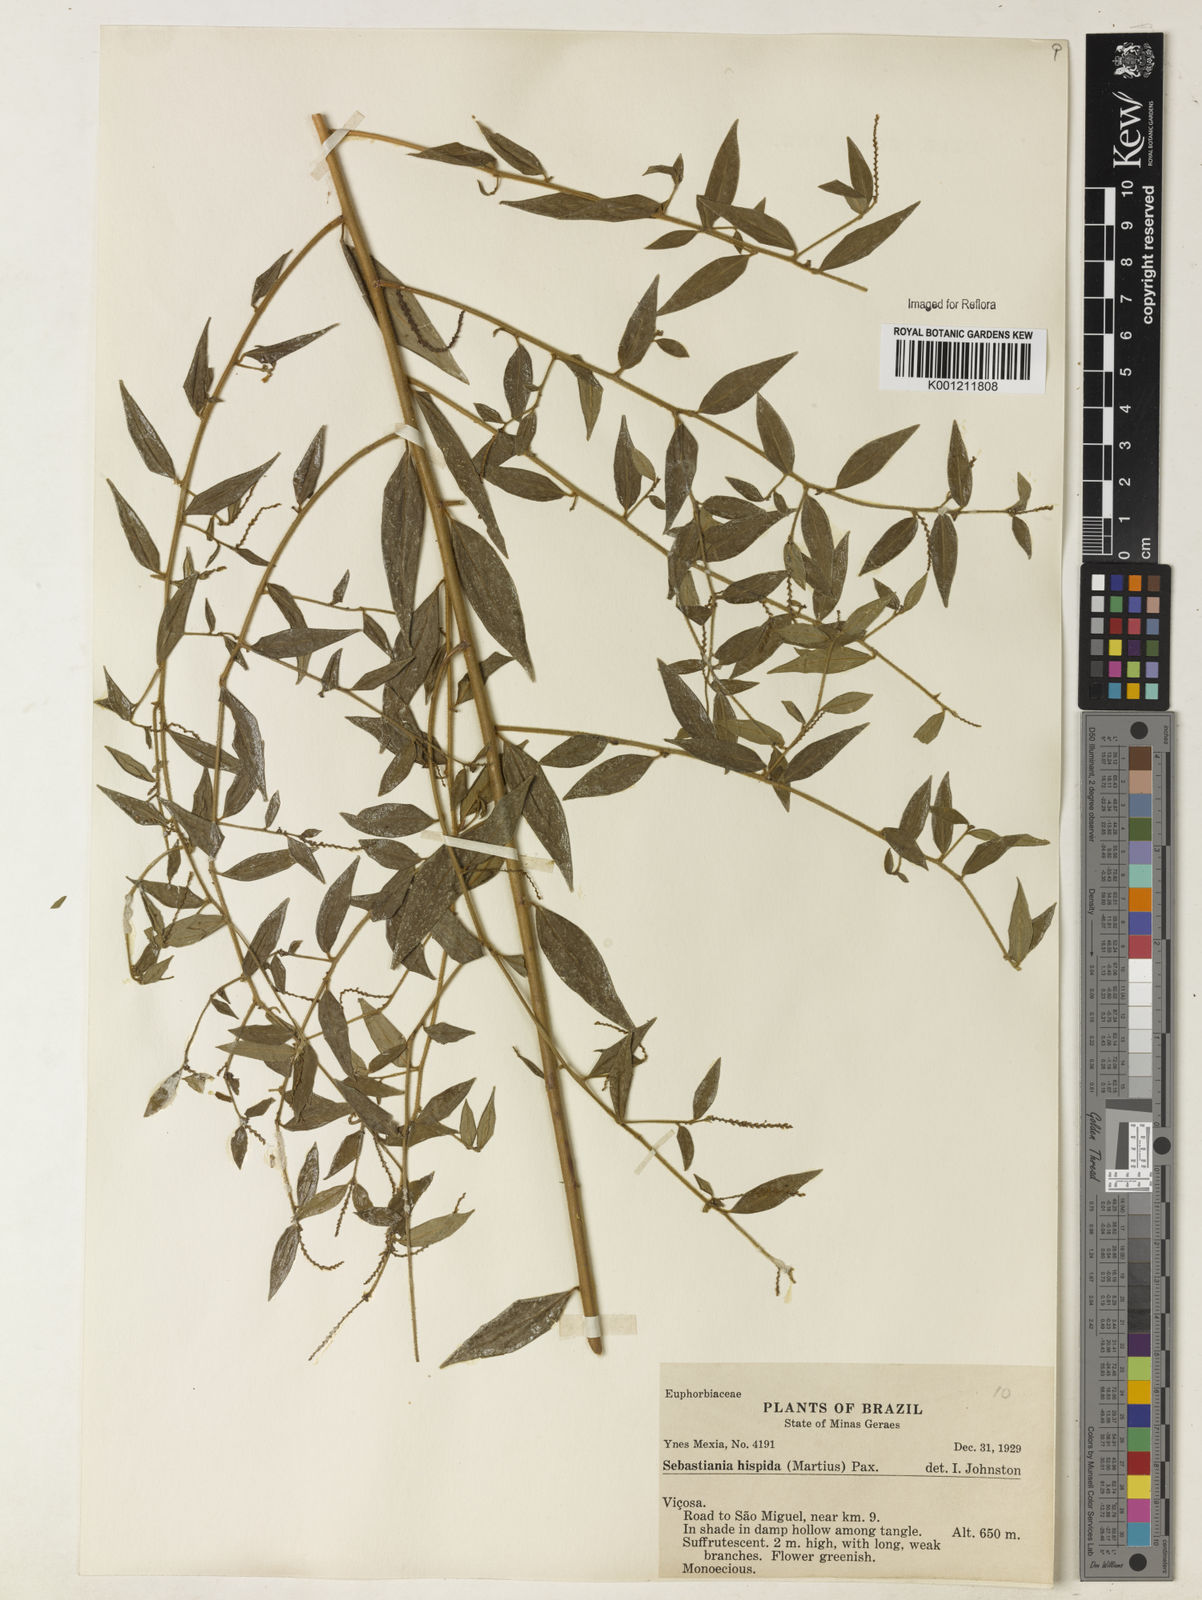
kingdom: Plantae
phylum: Tracheophyta
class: Magnoliopsida
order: Malpighiales
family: Euphorbiaceae
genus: Microstachys
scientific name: Microstachys hispida
